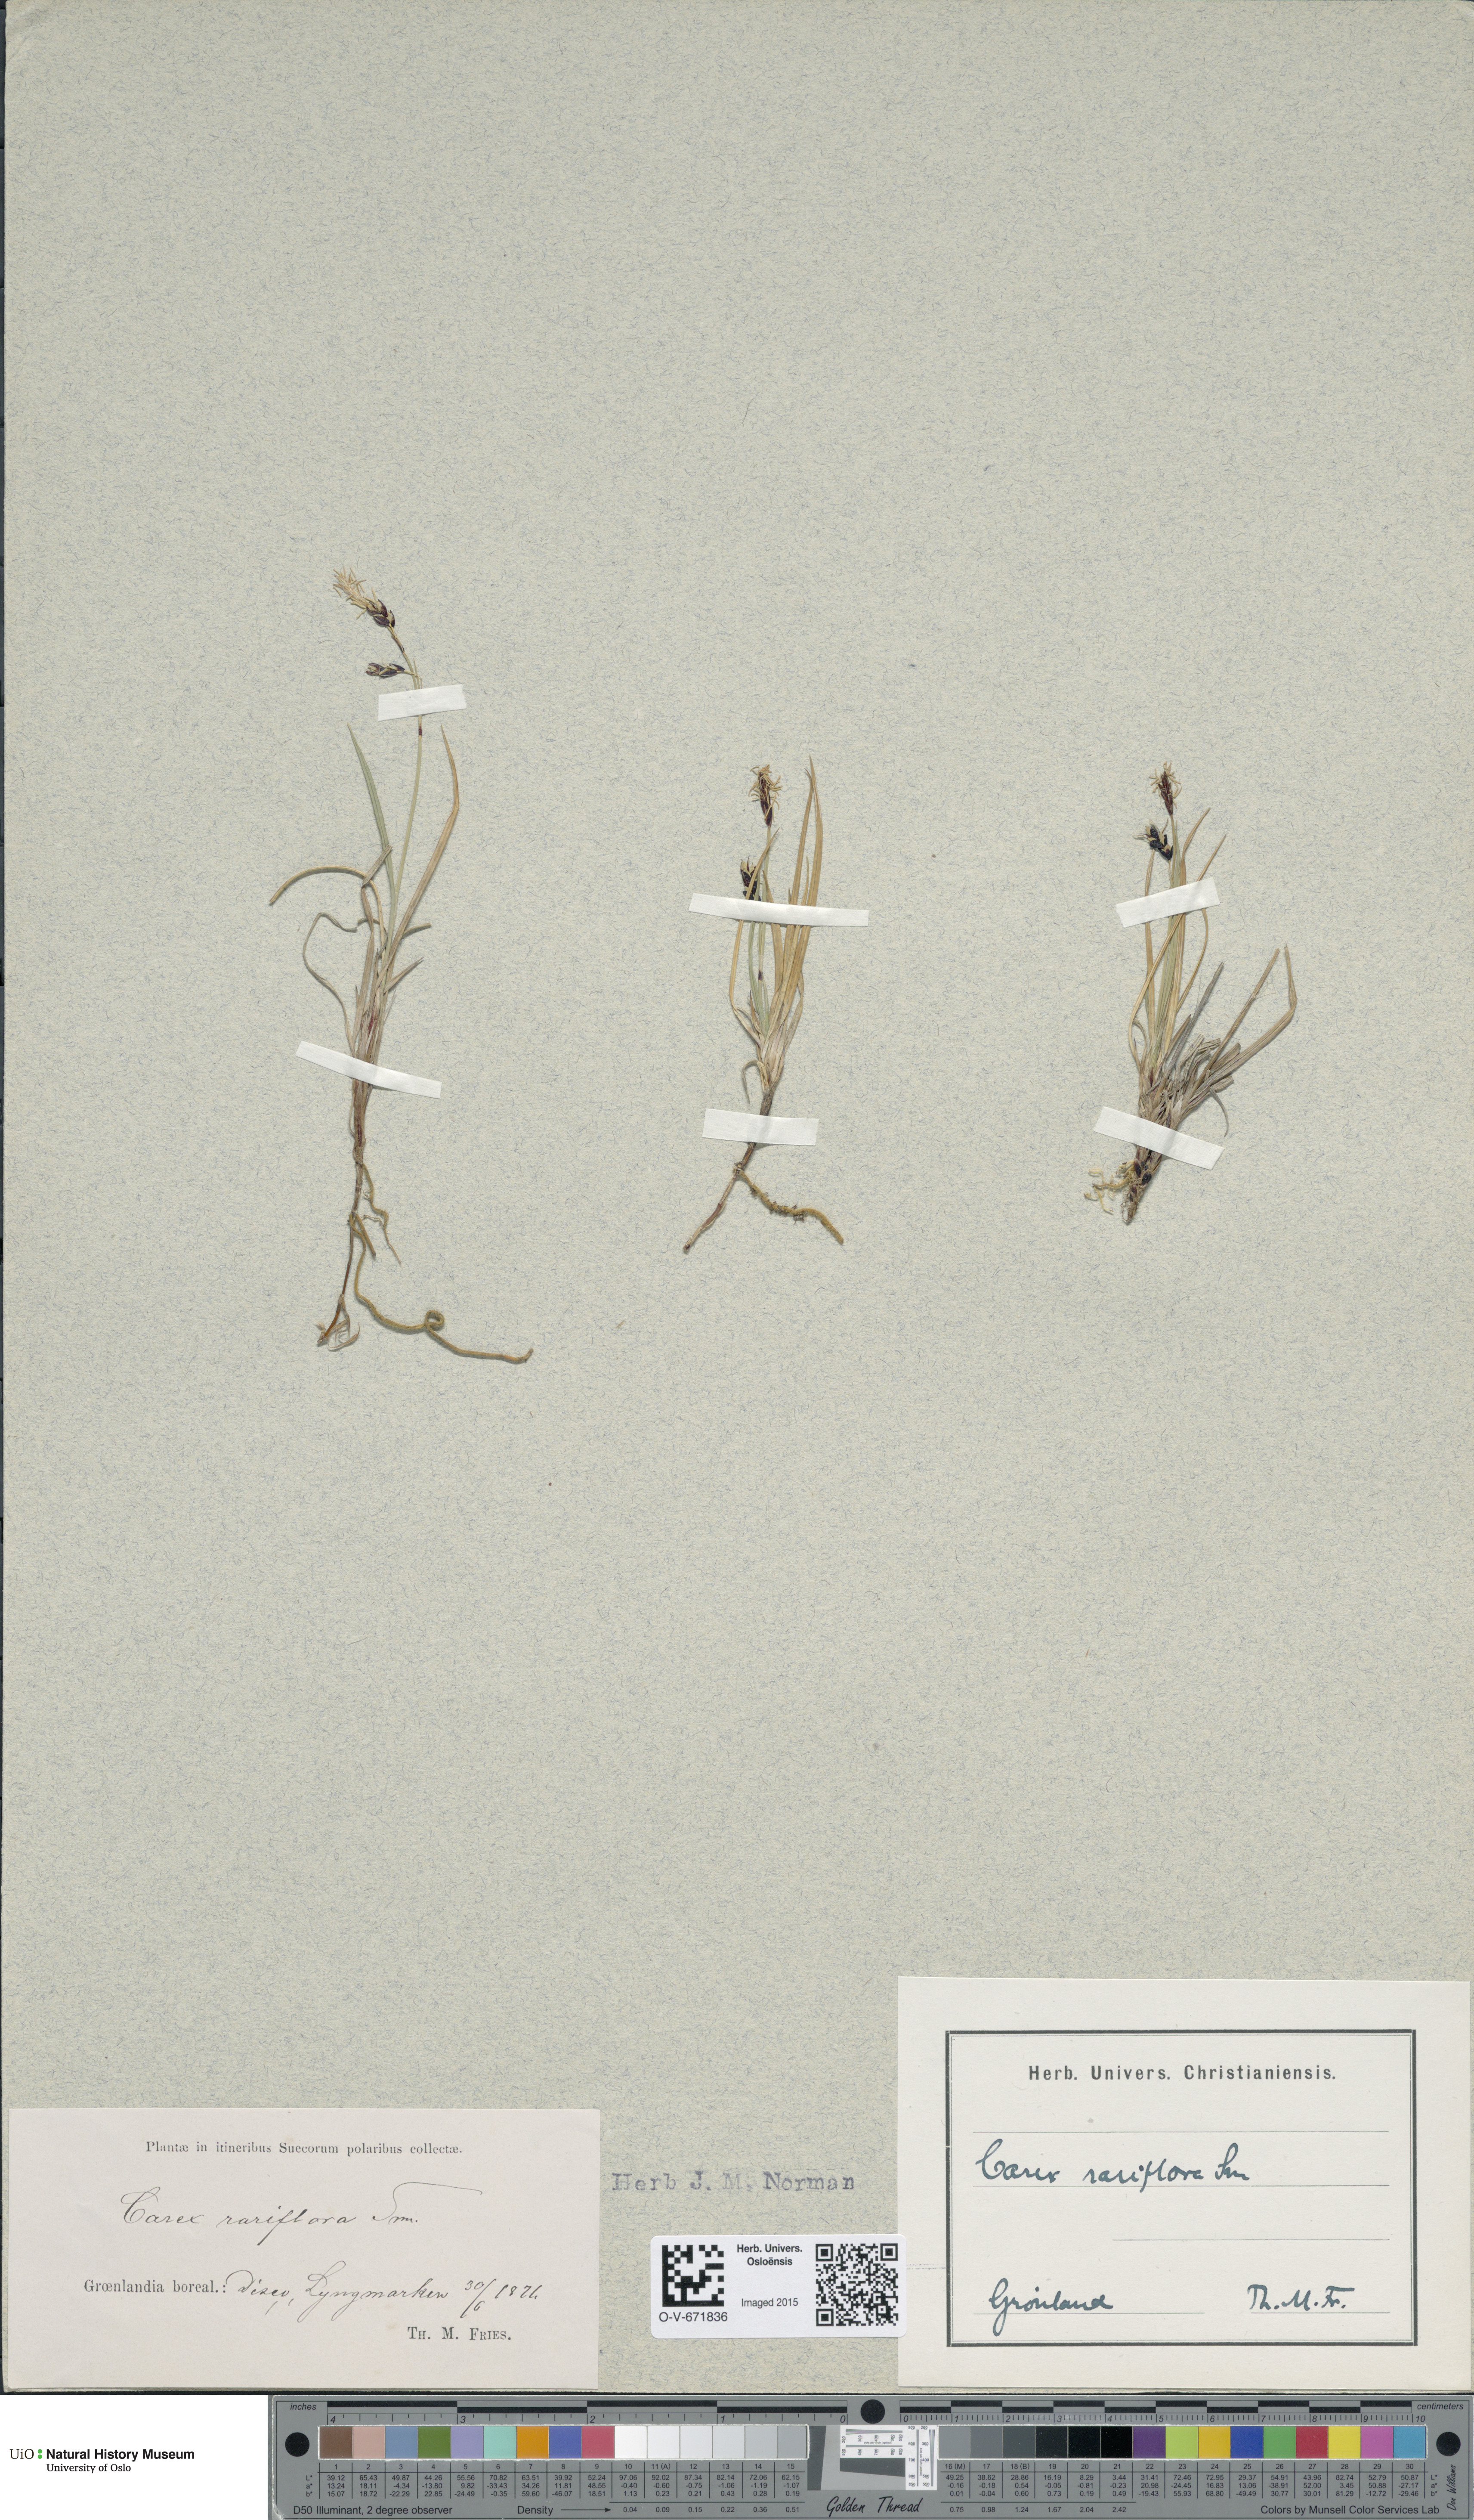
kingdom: Plantae
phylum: Tracheophyta
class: Liliopsida
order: Poales
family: Cyperaceae
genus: Carex
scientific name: Carex rariflora
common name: Loose-flowered alpine sedge
